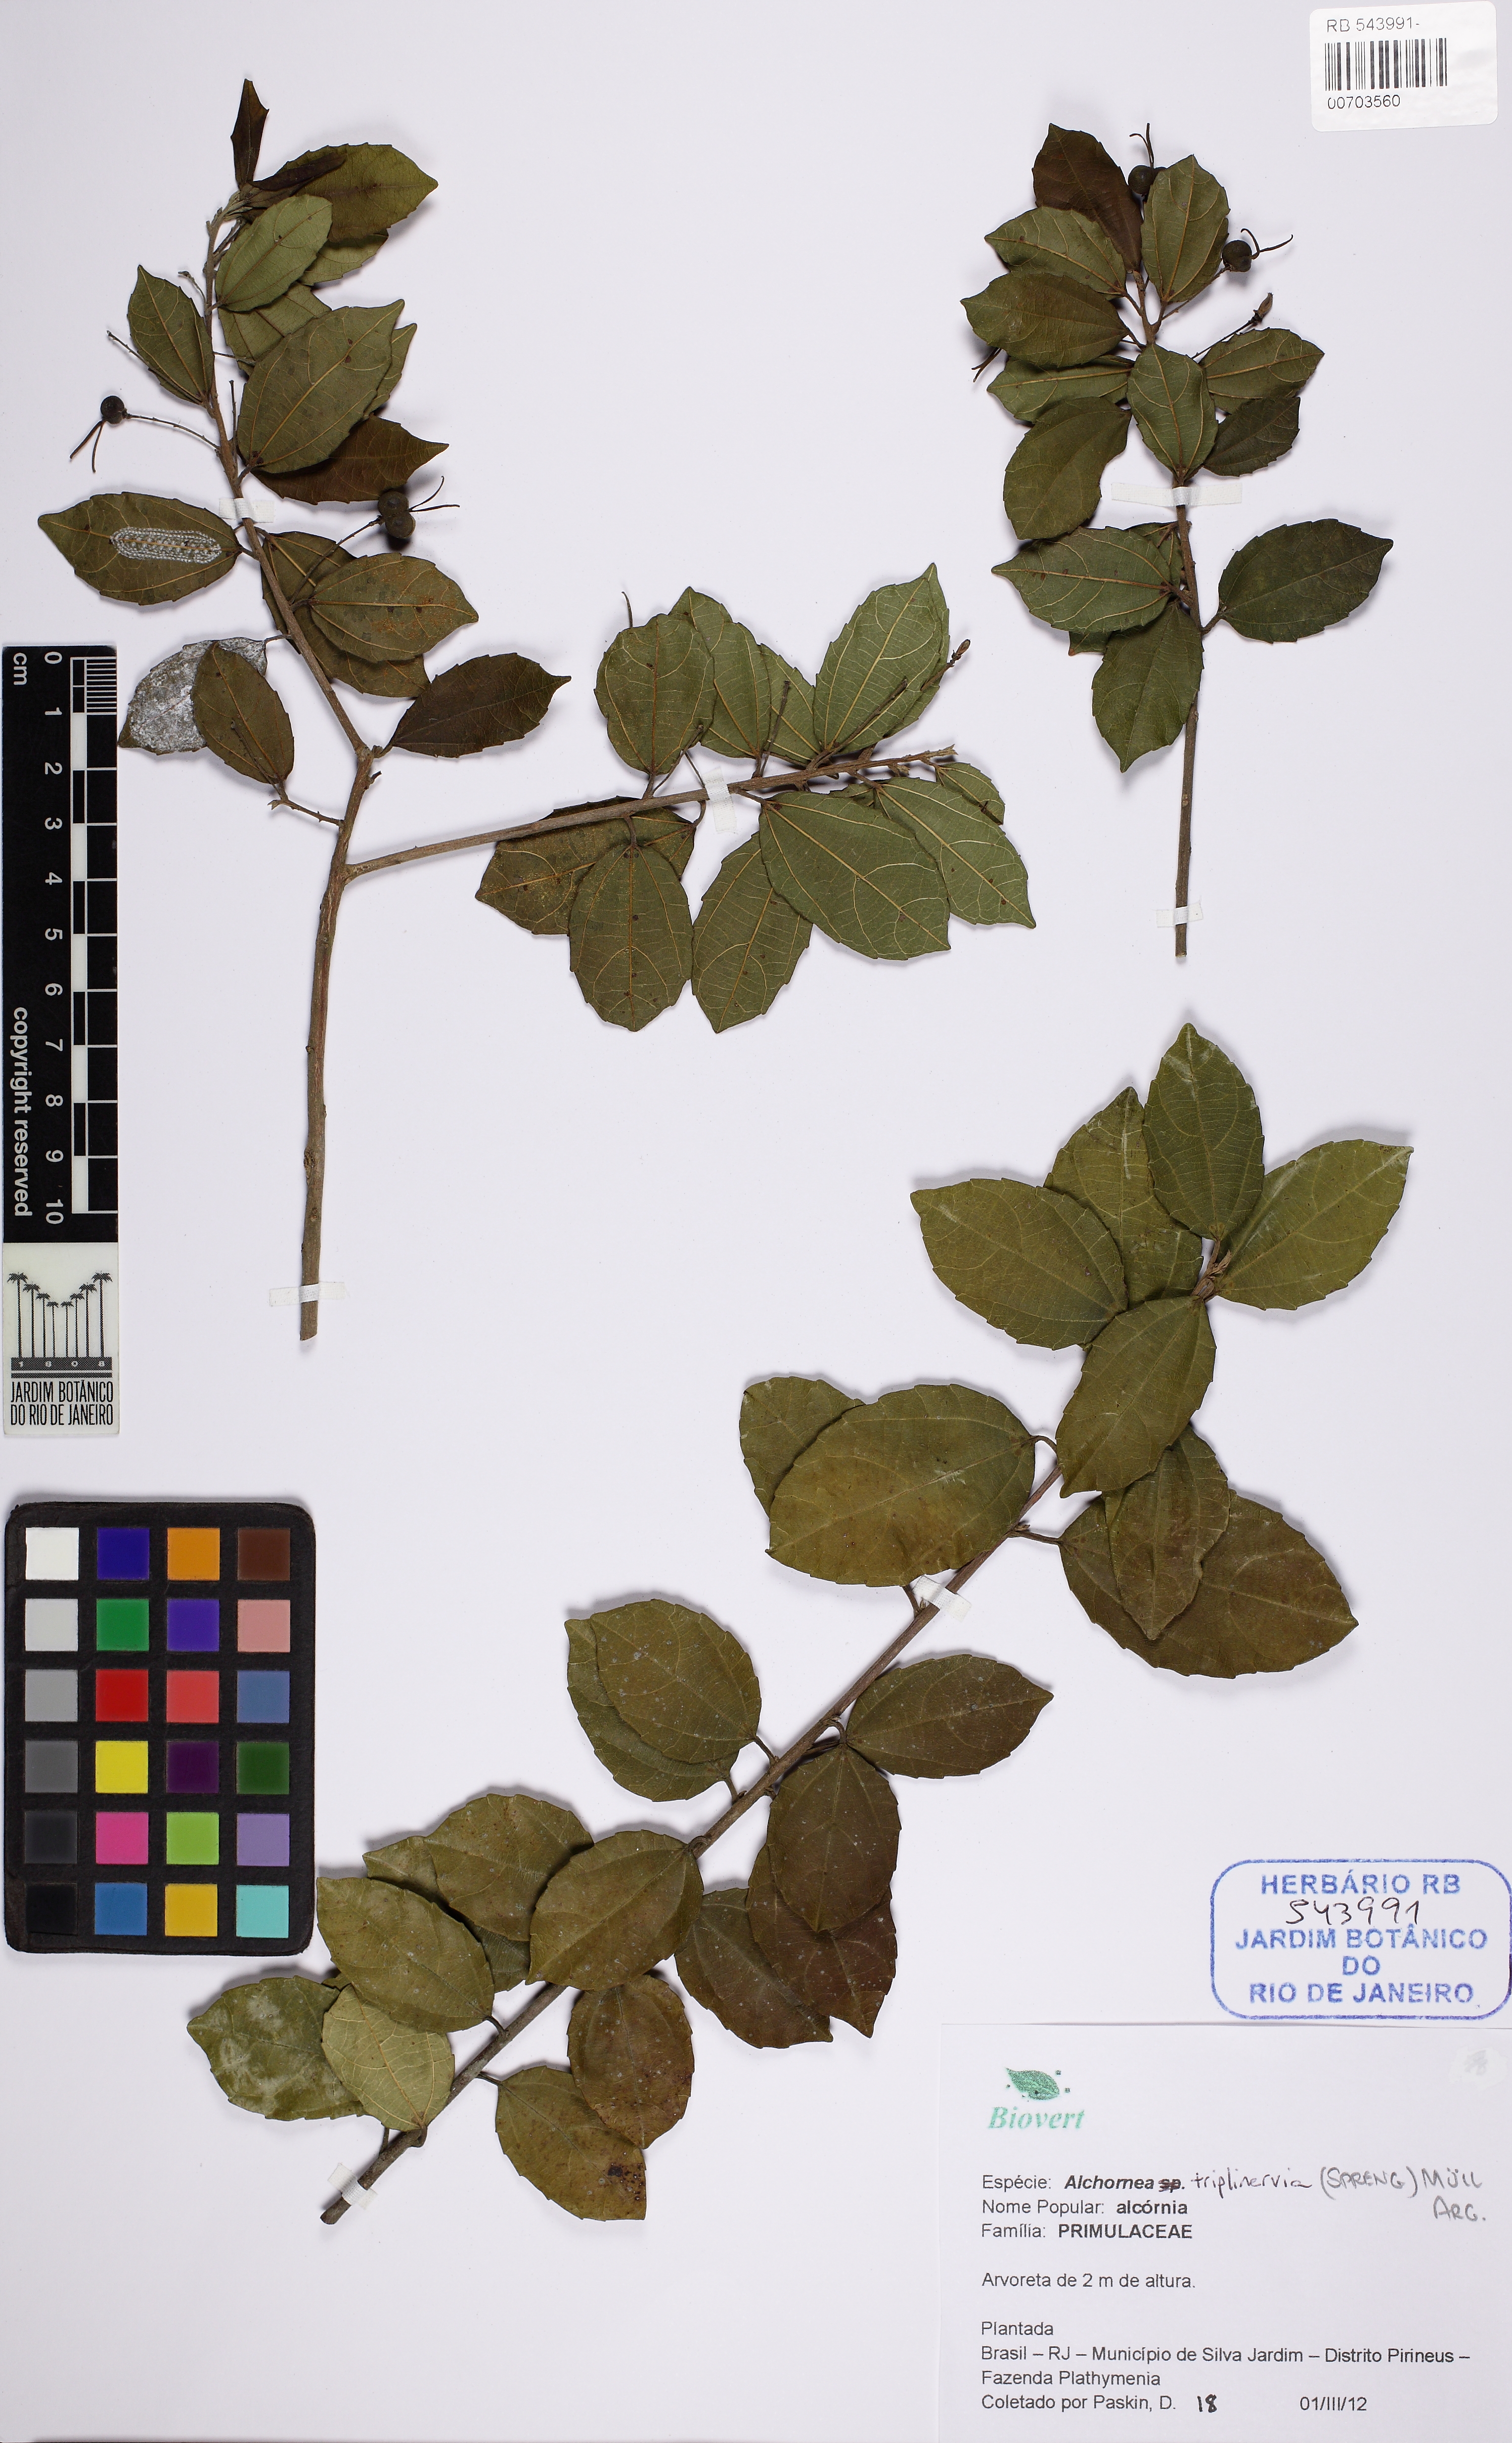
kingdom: Plantae
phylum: Tracheophyta
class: Magnoliopsida
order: Malpighiales
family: Euphorbiaceae
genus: Alchornea
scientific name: Alchornea triplinervia
